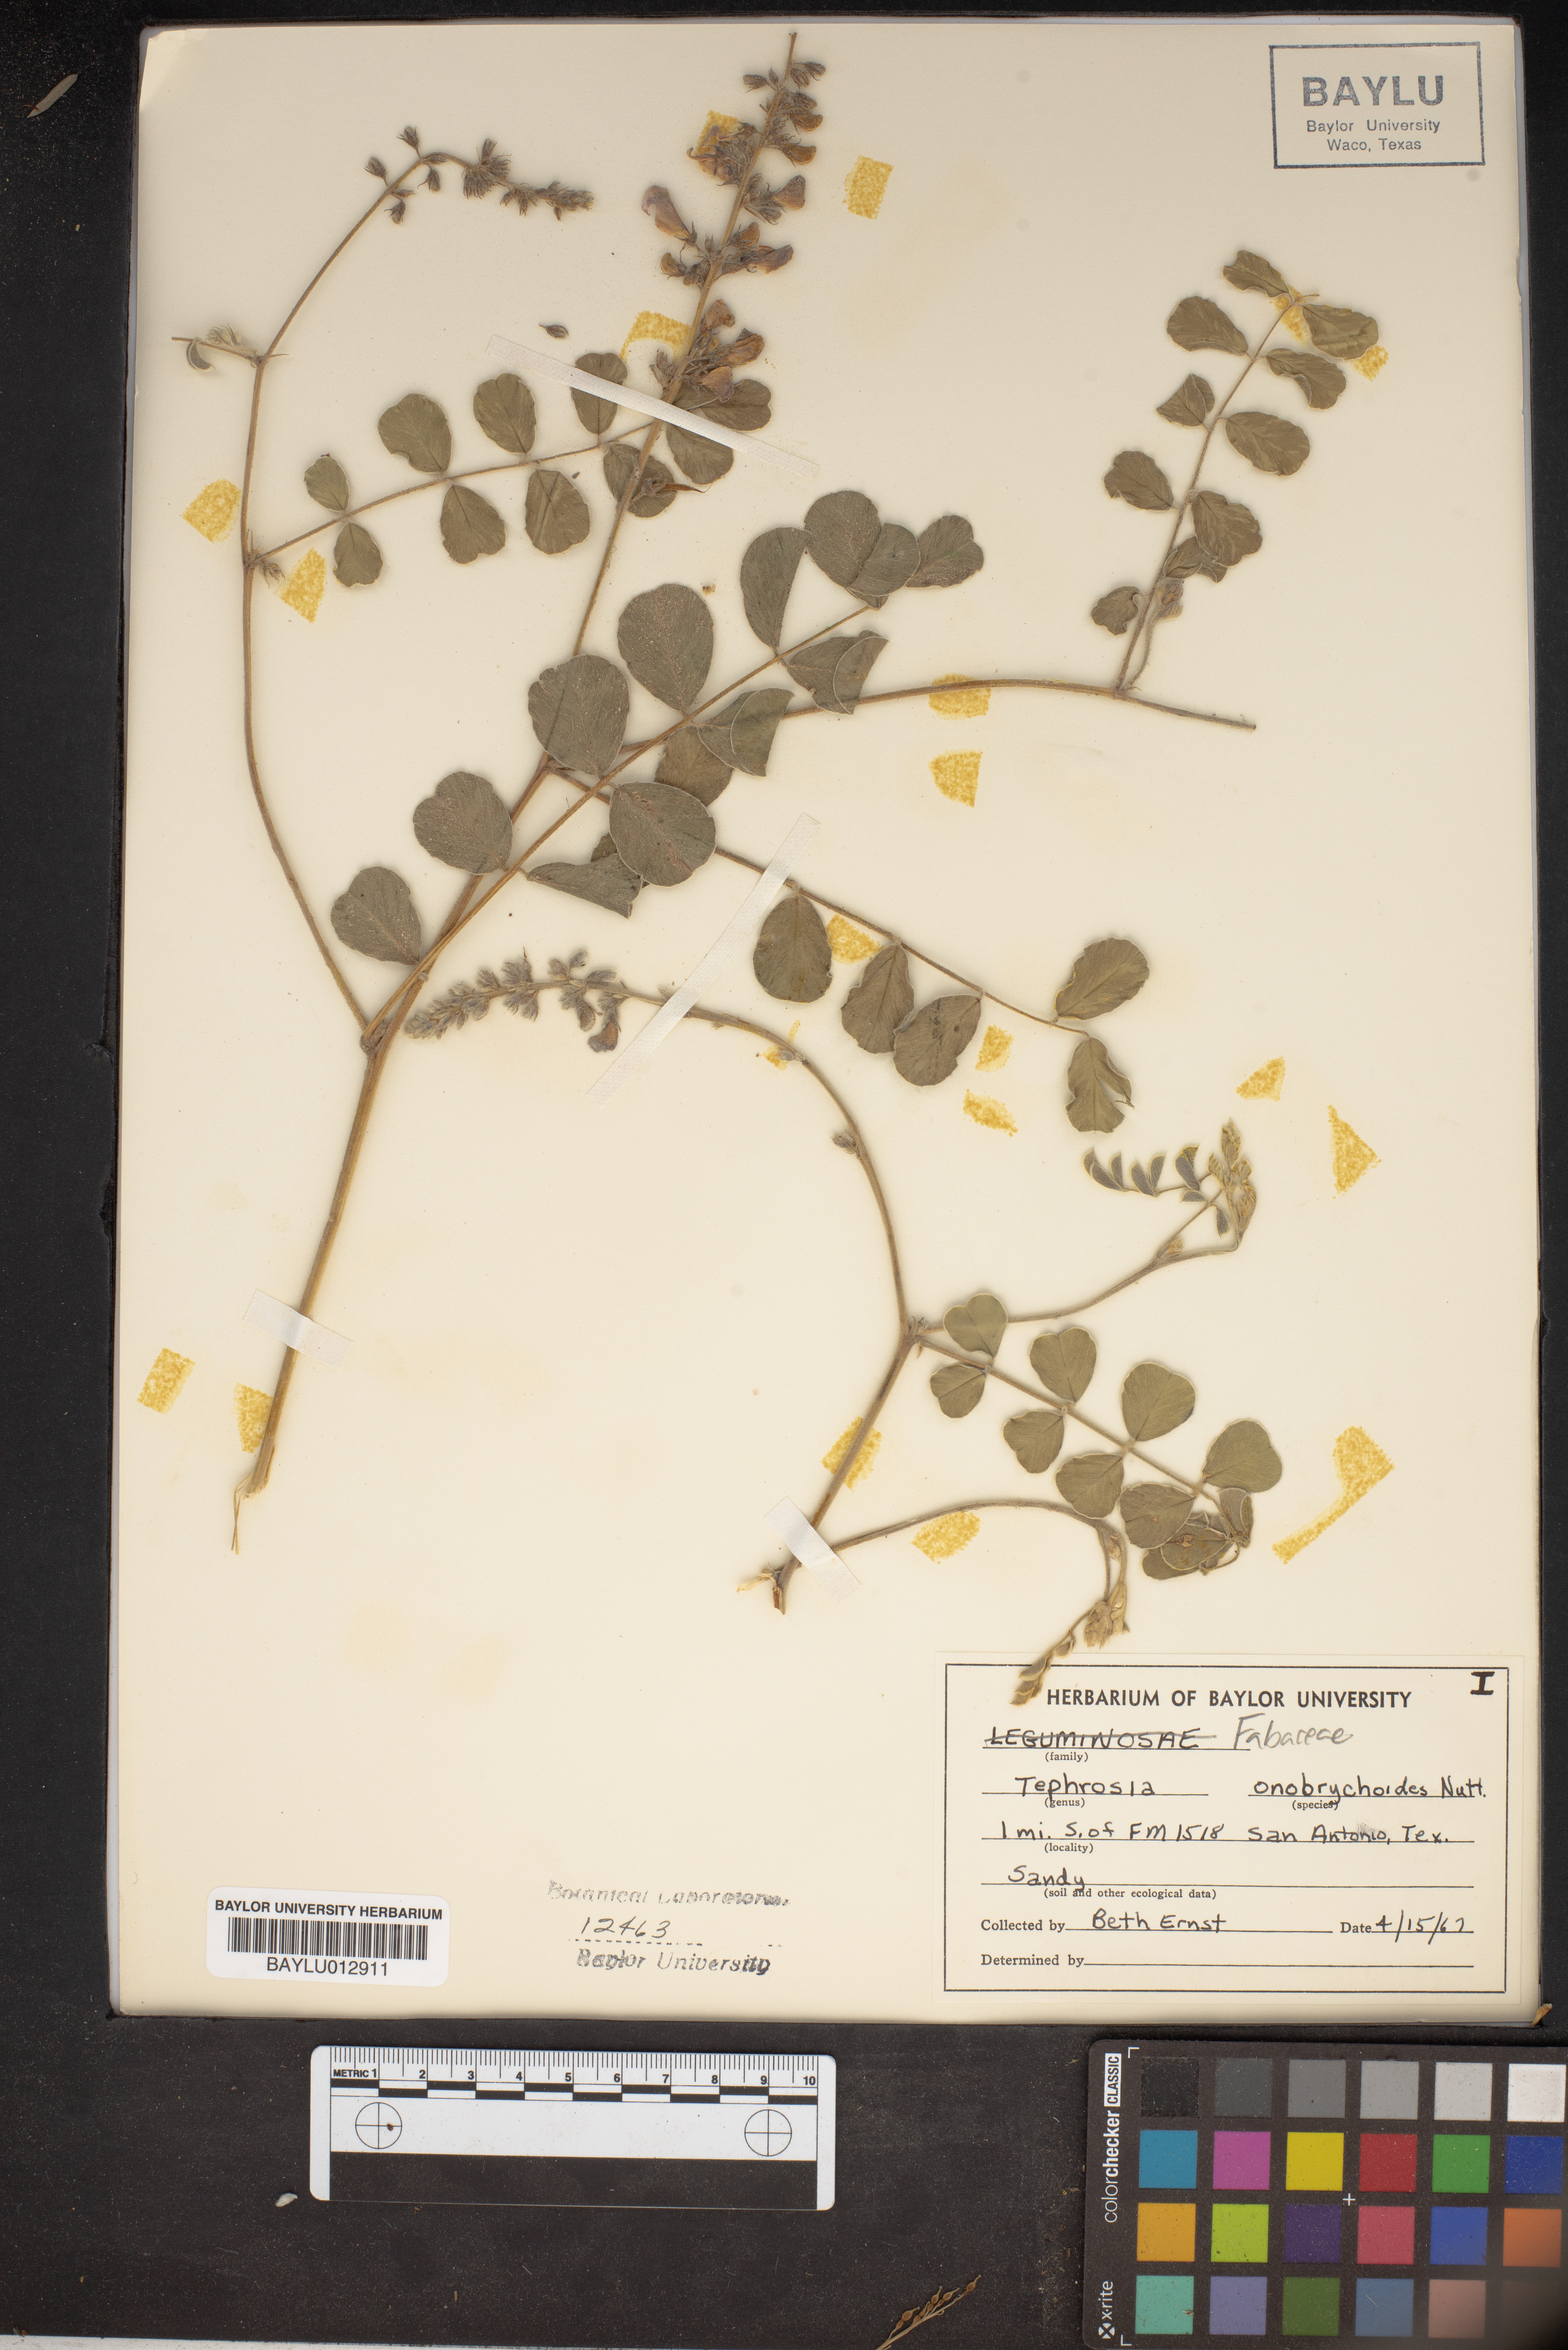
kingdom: Plantae
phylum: Tracheophyta
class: Magnoliopsida
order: Fabales
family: Fabaceae
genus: Tephrosia
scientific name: Tephrosia onobrychoides
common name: Multi-bloom hoary-pea
